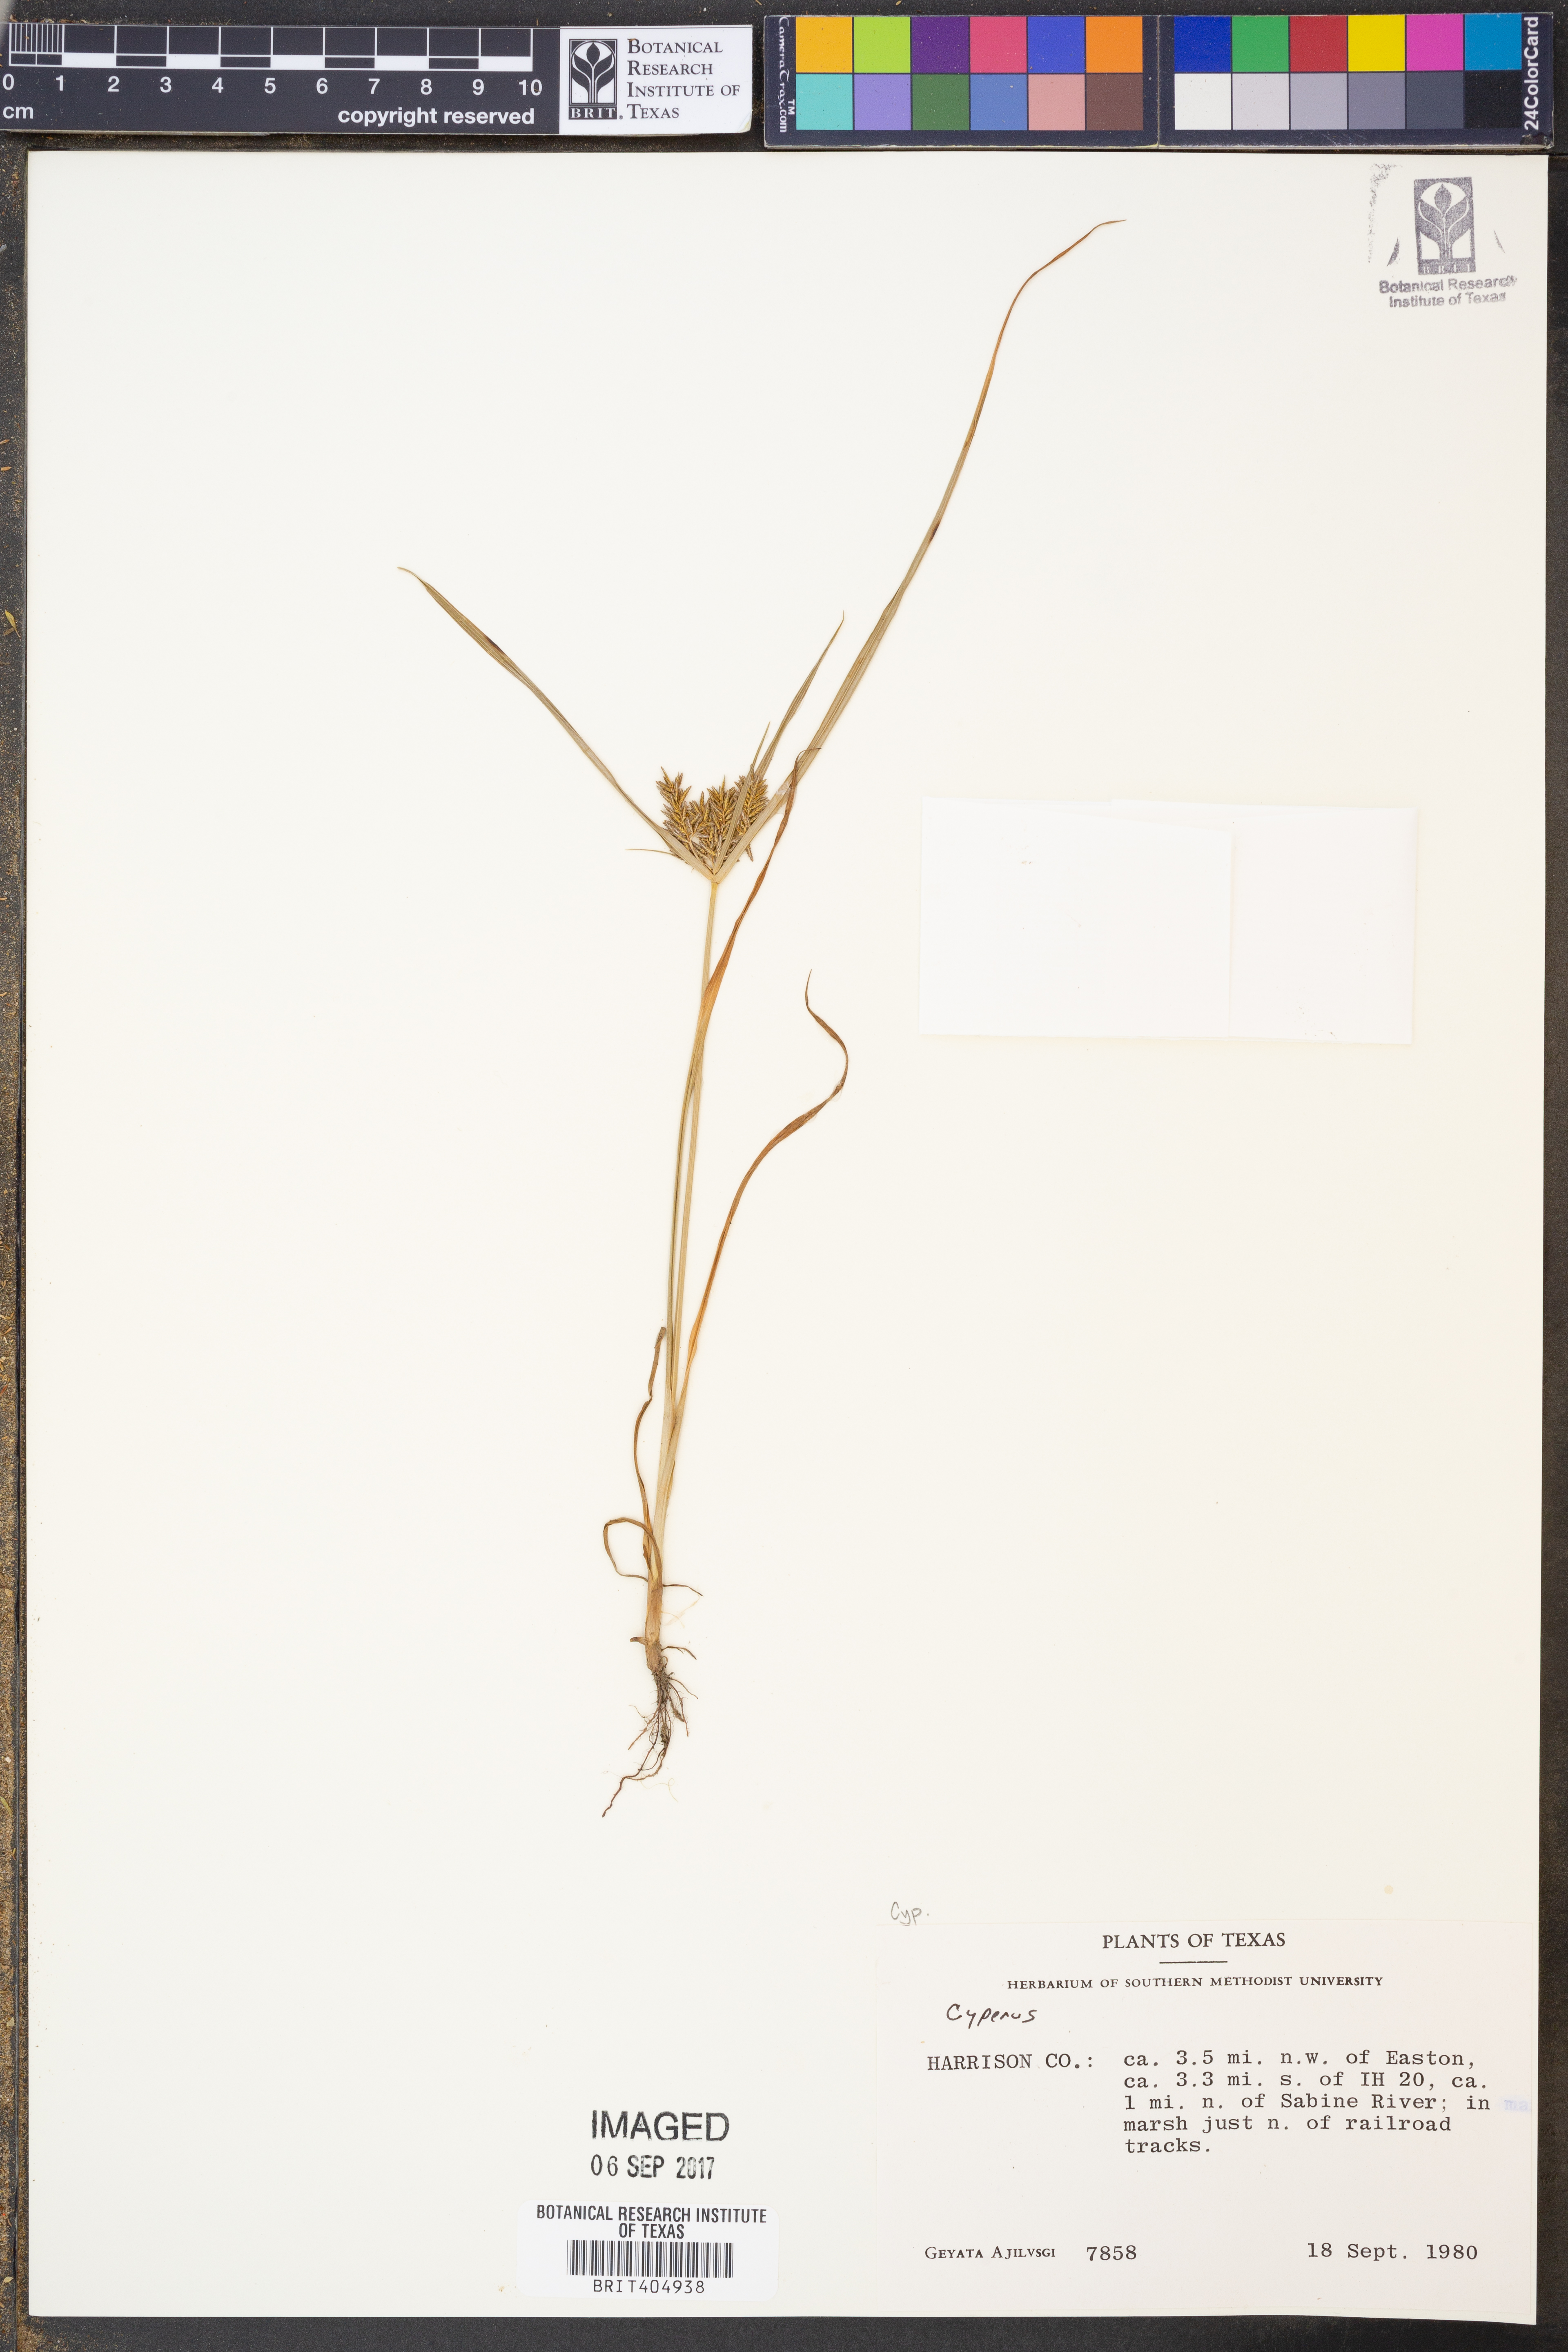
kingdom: Plantae
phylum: Tracheophyta
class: Liliopsida
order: Poales
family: Cyperaceae
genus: Cyperus
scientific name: Cyperus
